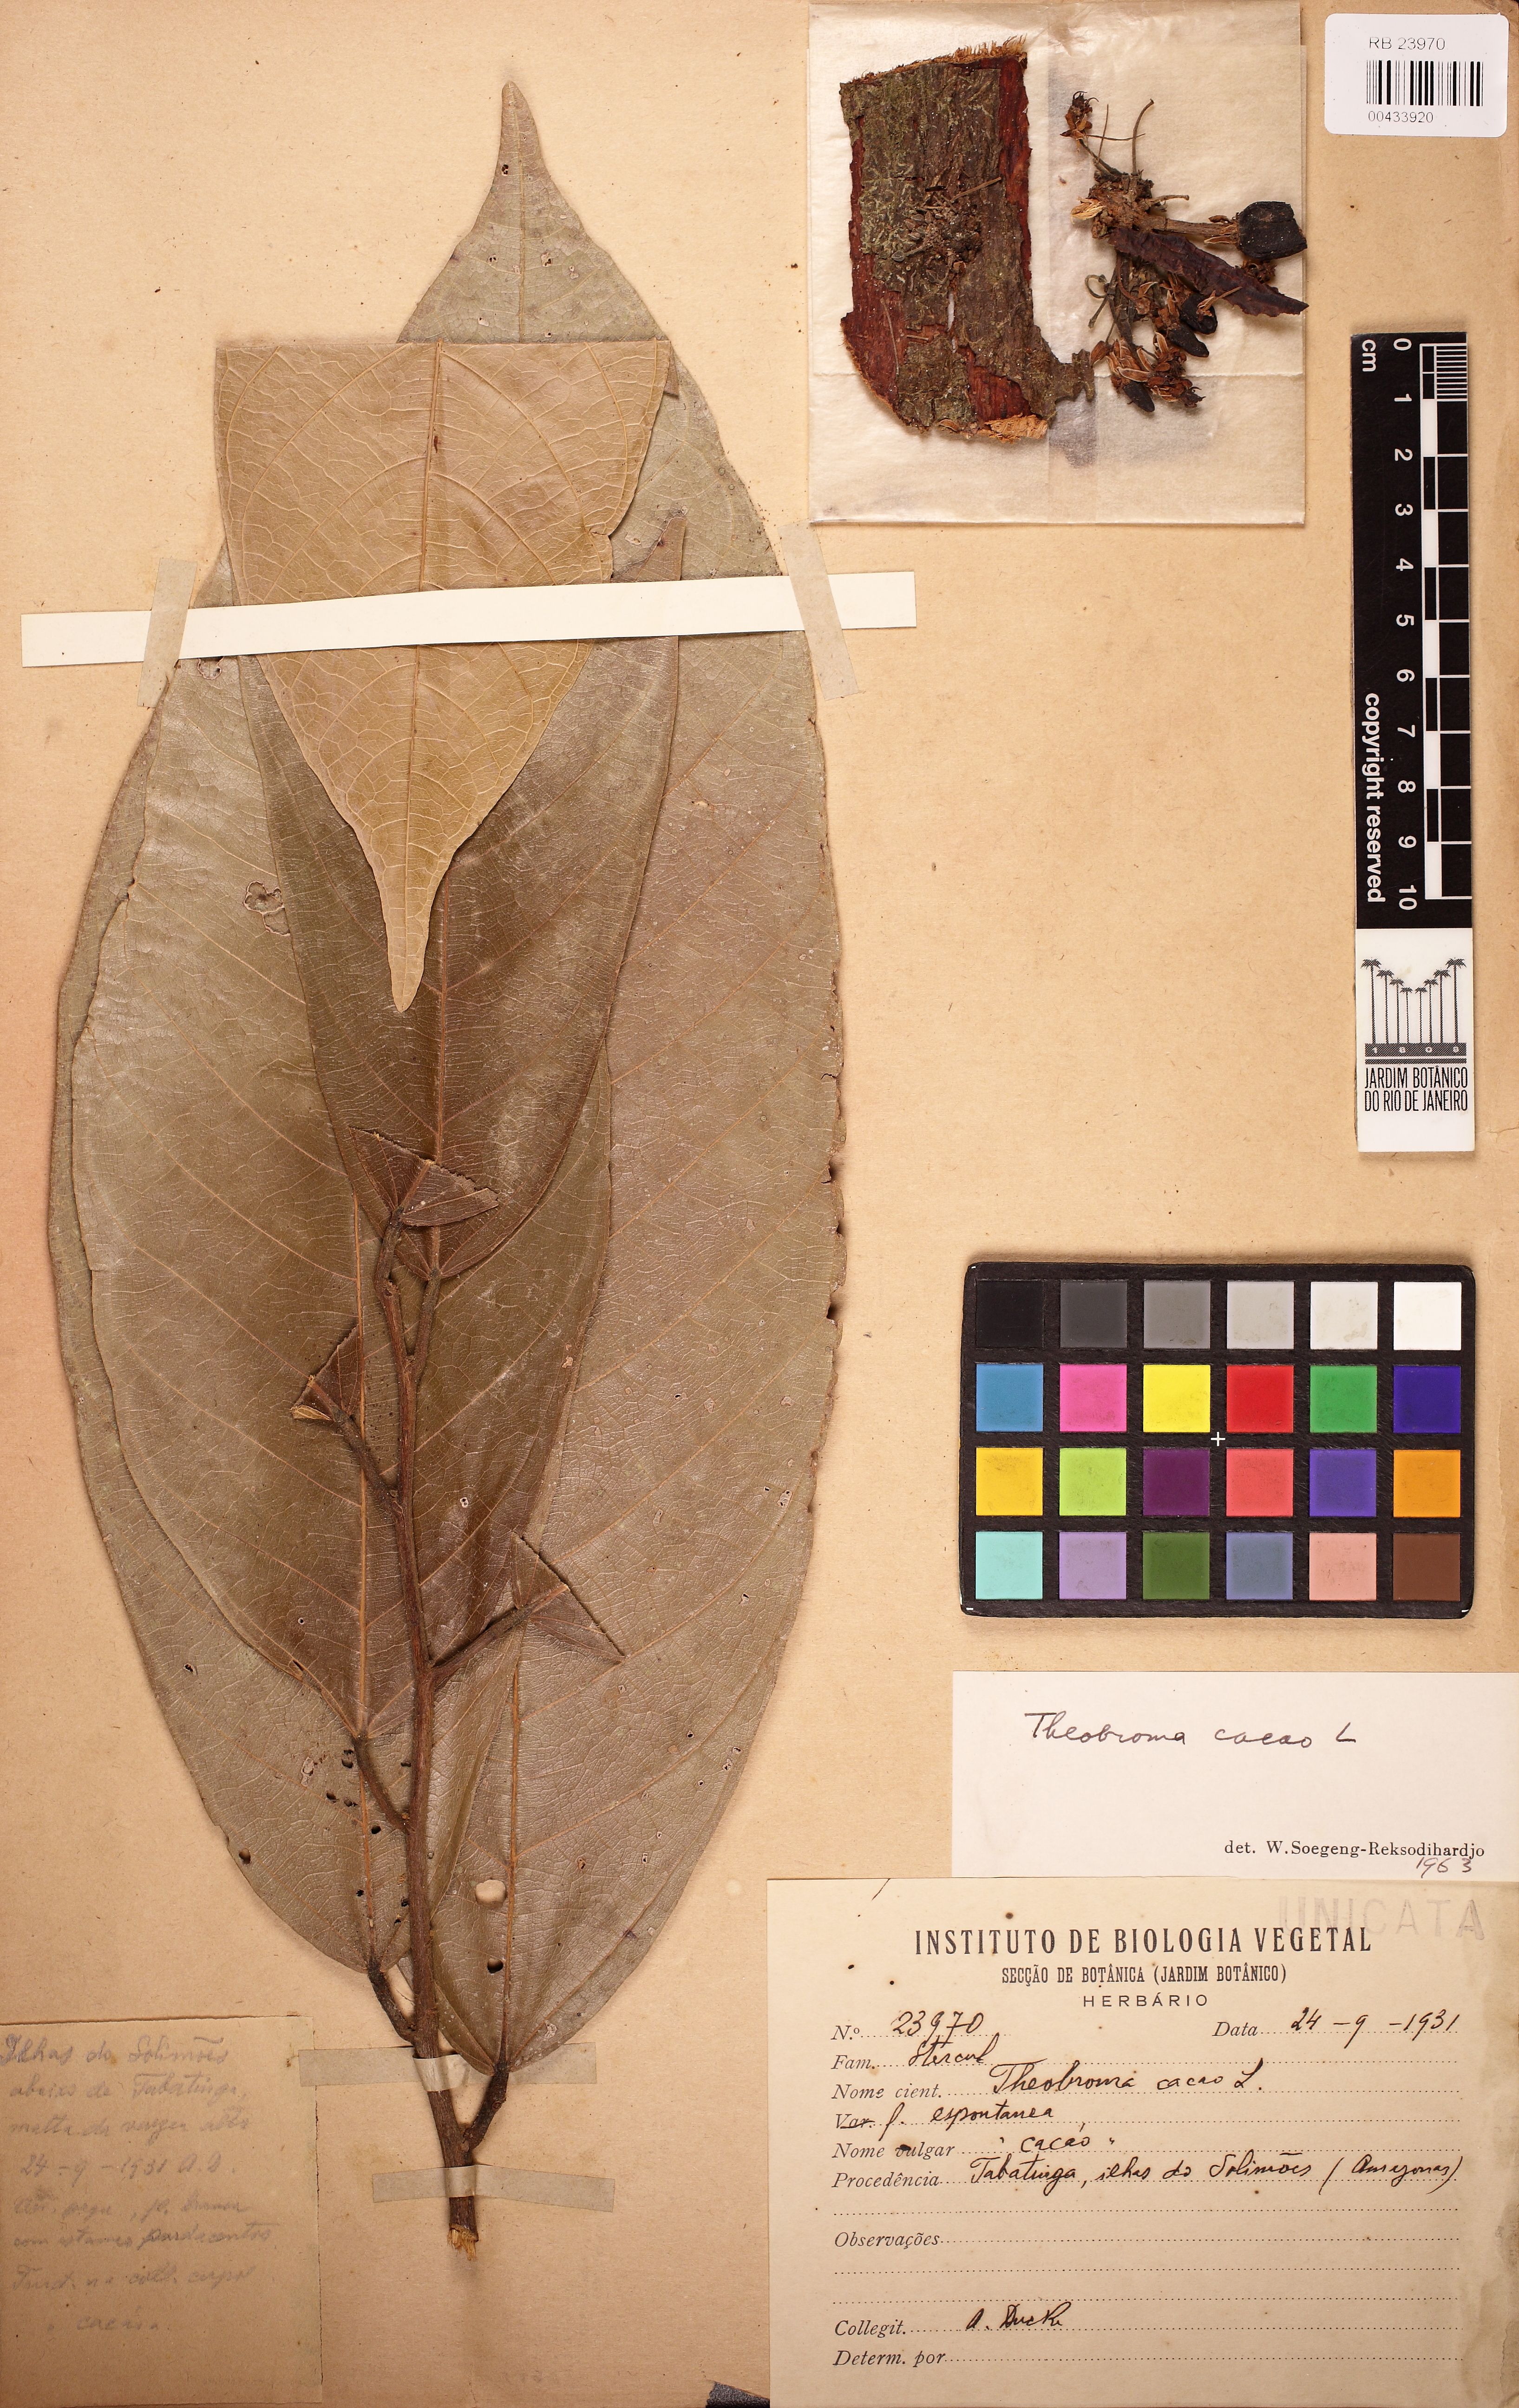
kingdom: Plantae
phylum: Tracheophyta
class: Magnoliopsida
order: Malvales
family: Malvaceae
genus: Theobroma
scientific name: Theobroma cacao
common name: Cocoa
